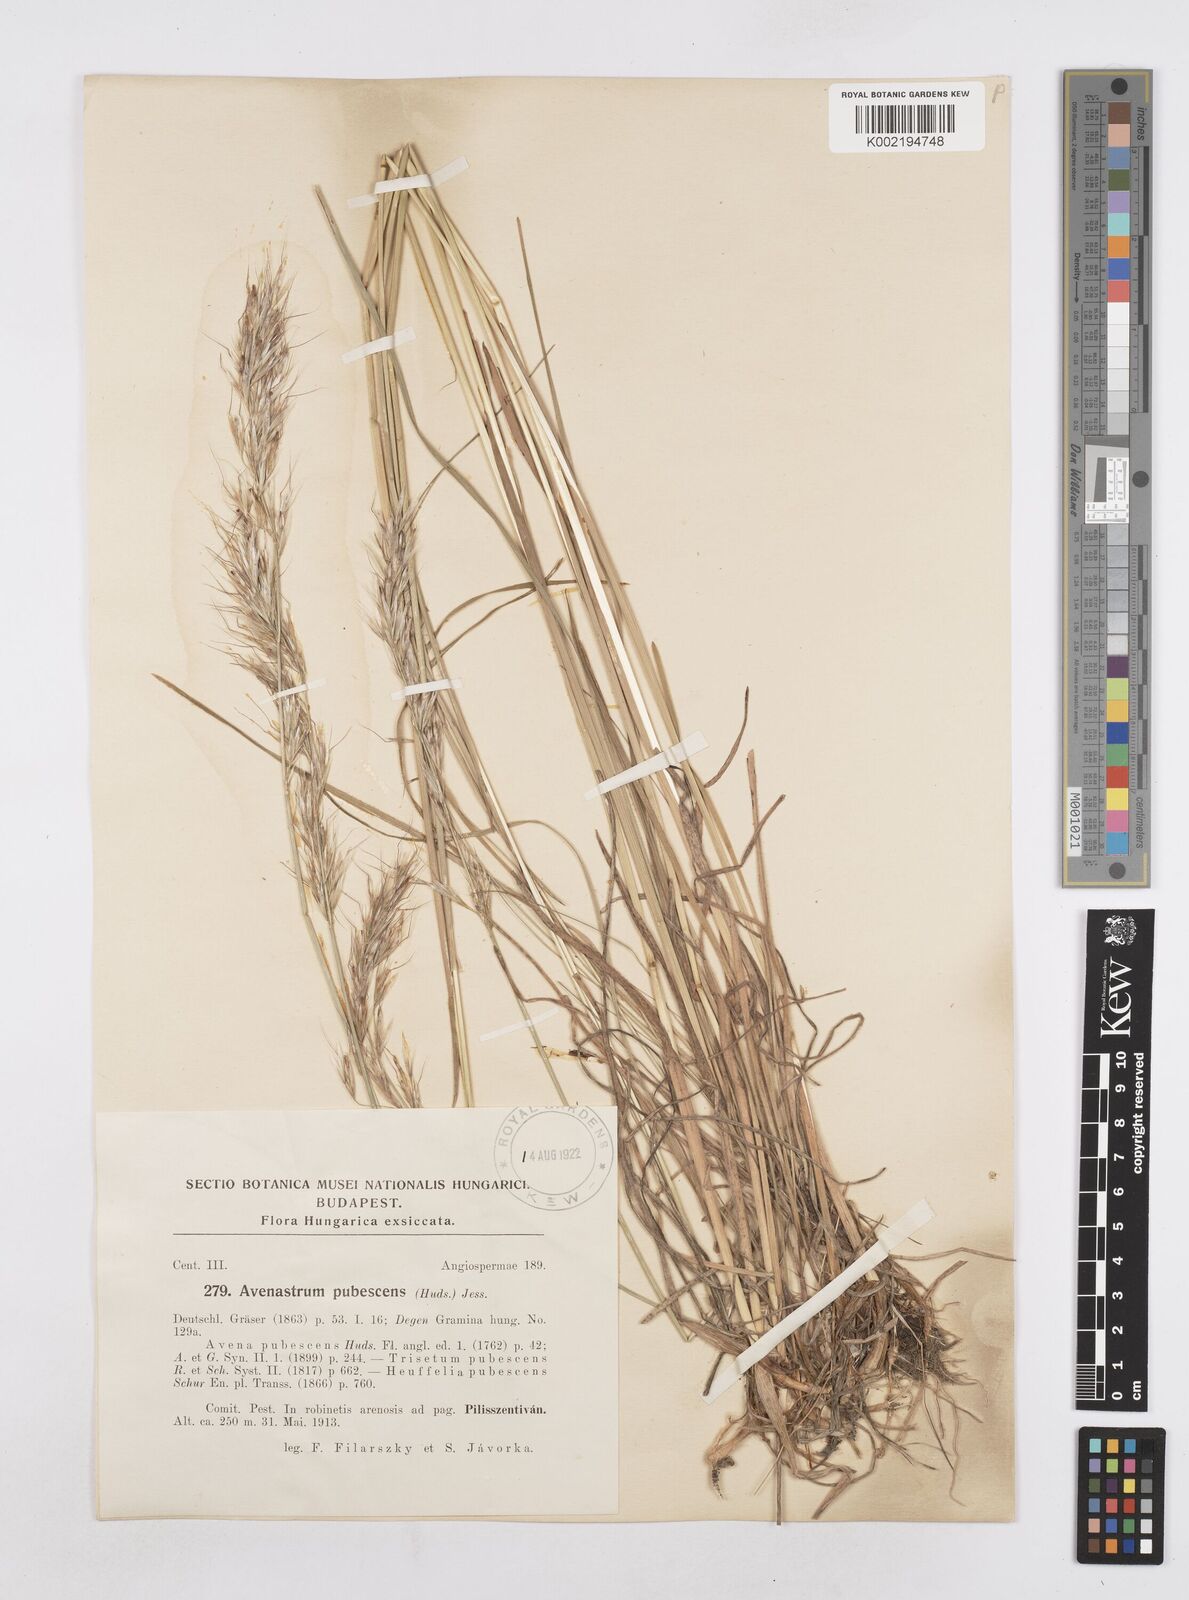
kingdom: Plantae
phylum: Tracheophyta
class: Liliopsida
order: Poales
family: Poaceae
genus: Avenula
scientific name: Avenula pubescens
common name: Downy alpine oatgrass
